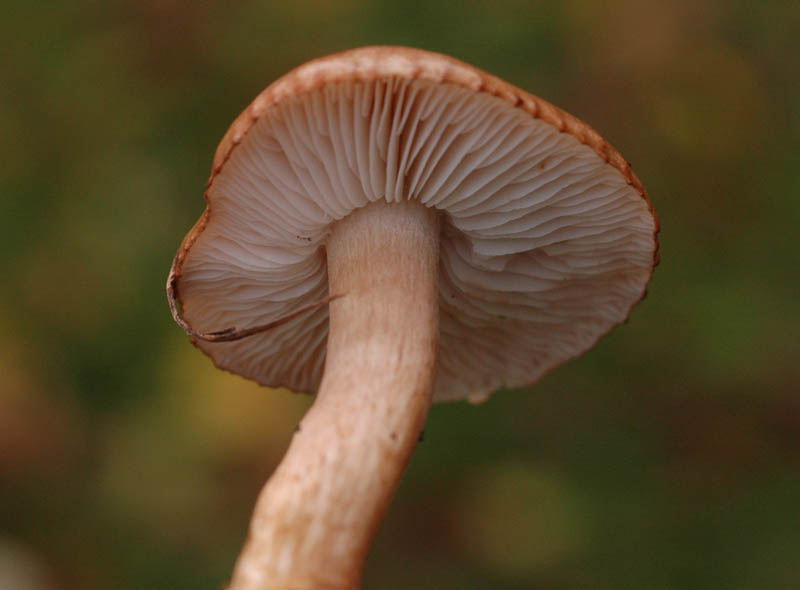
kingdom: Fungi
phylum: Basidiomycota
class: Agaricomycetes
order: Agaricales
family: Tricholomataceae
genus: Tricholoma
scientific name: Tricholoma albobrunneum
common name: kastanie-ridderhat
